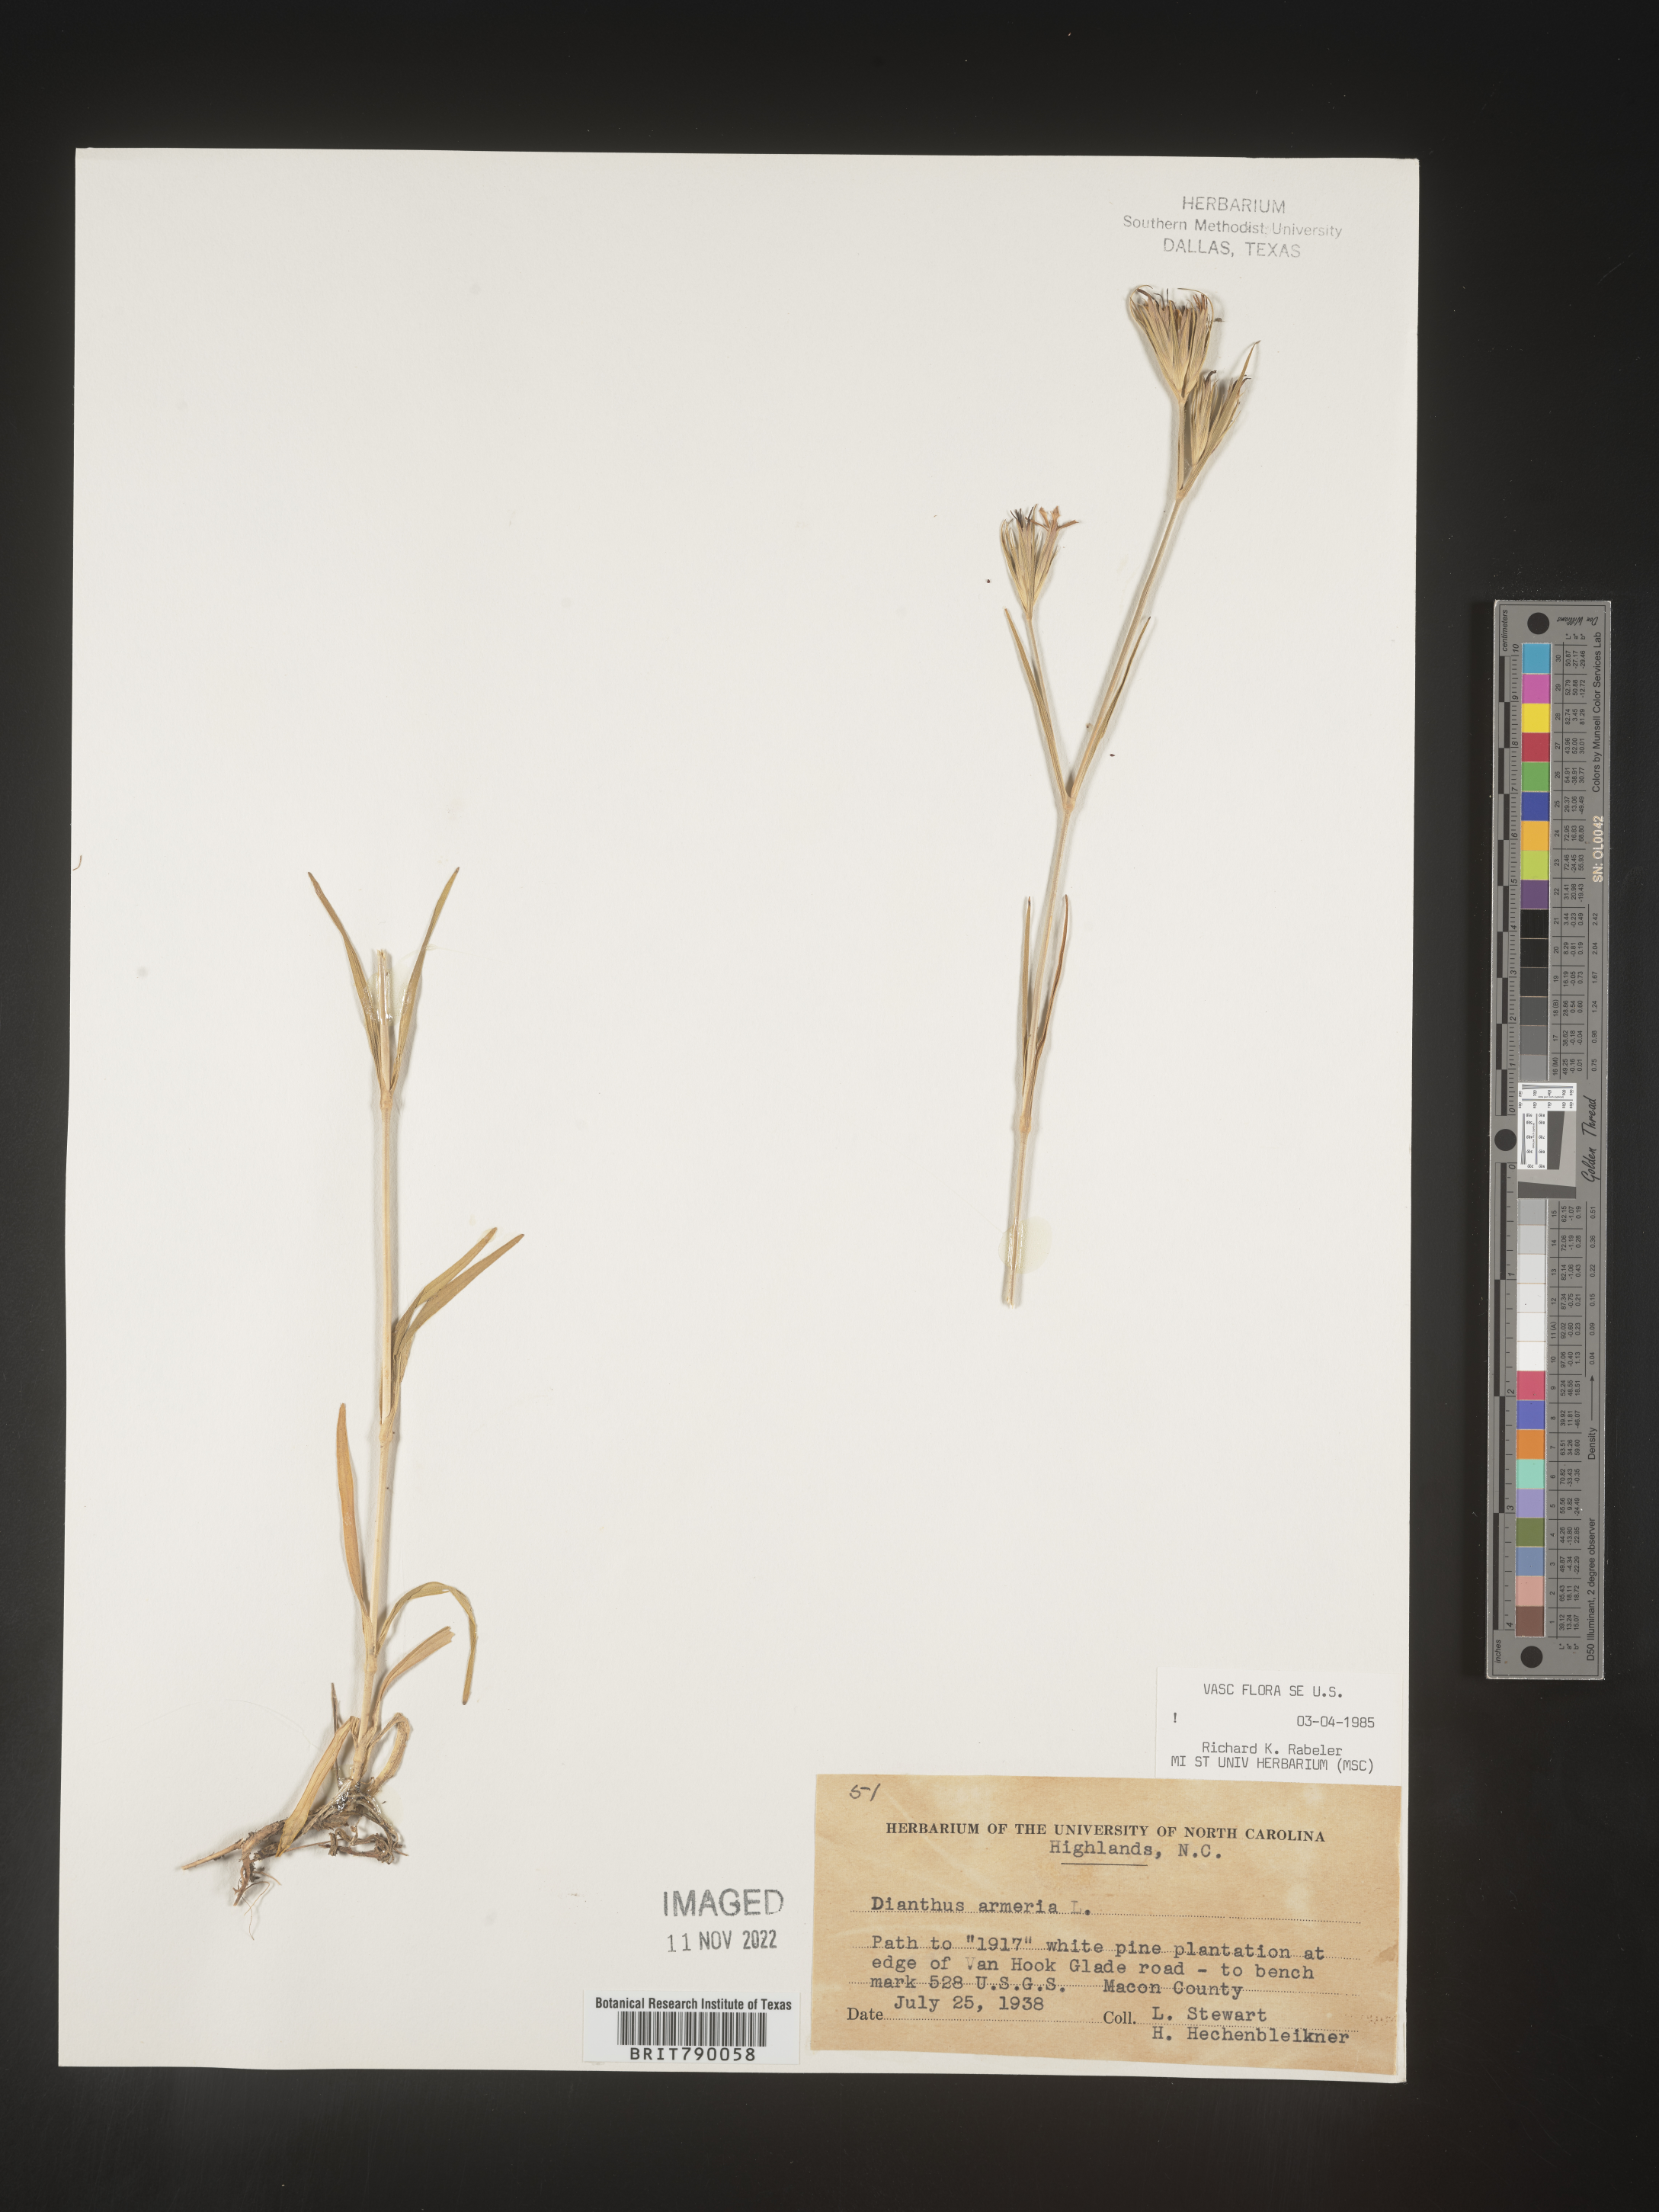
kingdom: Plantae
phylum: Tracheophyta
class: Magnoliopsida
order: Caryophyllales
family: Caryophyllaceae
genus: Dianthus
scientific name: Dianthus armeria
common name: Deptford pink
